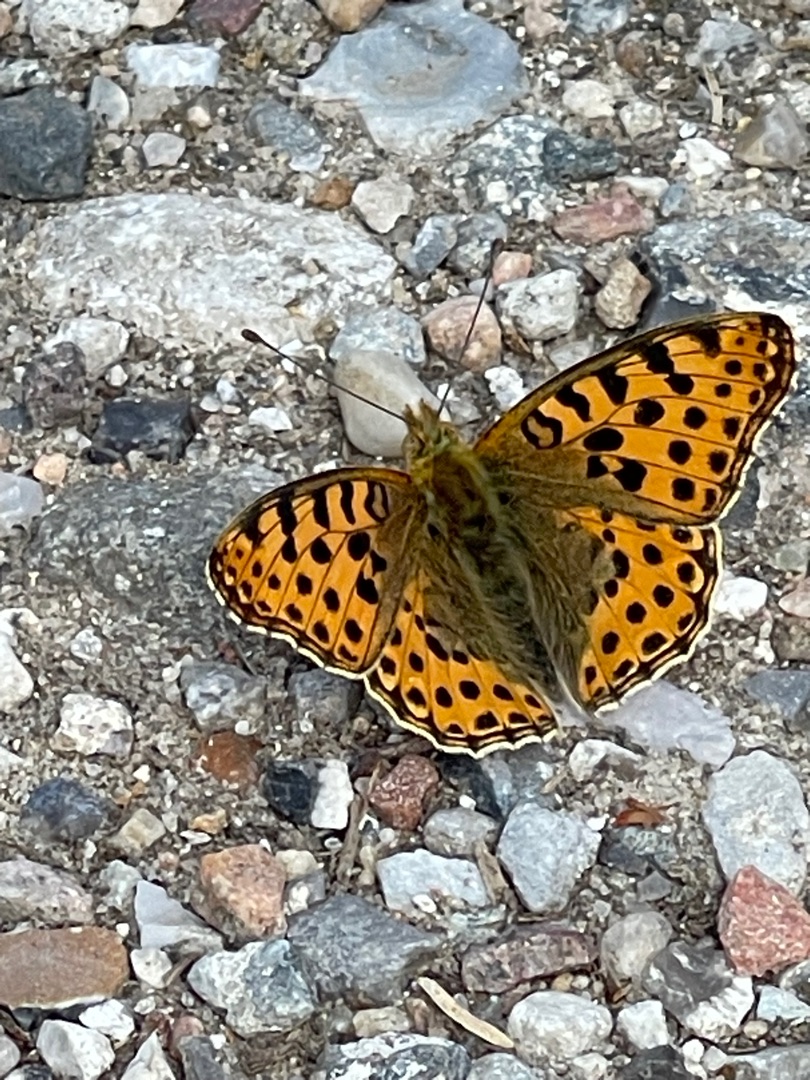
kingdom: Animalia
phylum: Arthropoda
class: Insecta
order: Lepidoptera
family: Nymphalidae
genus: Issoria
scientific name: Issoria lathonia
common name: Storplettet perlemorsommerfugl
